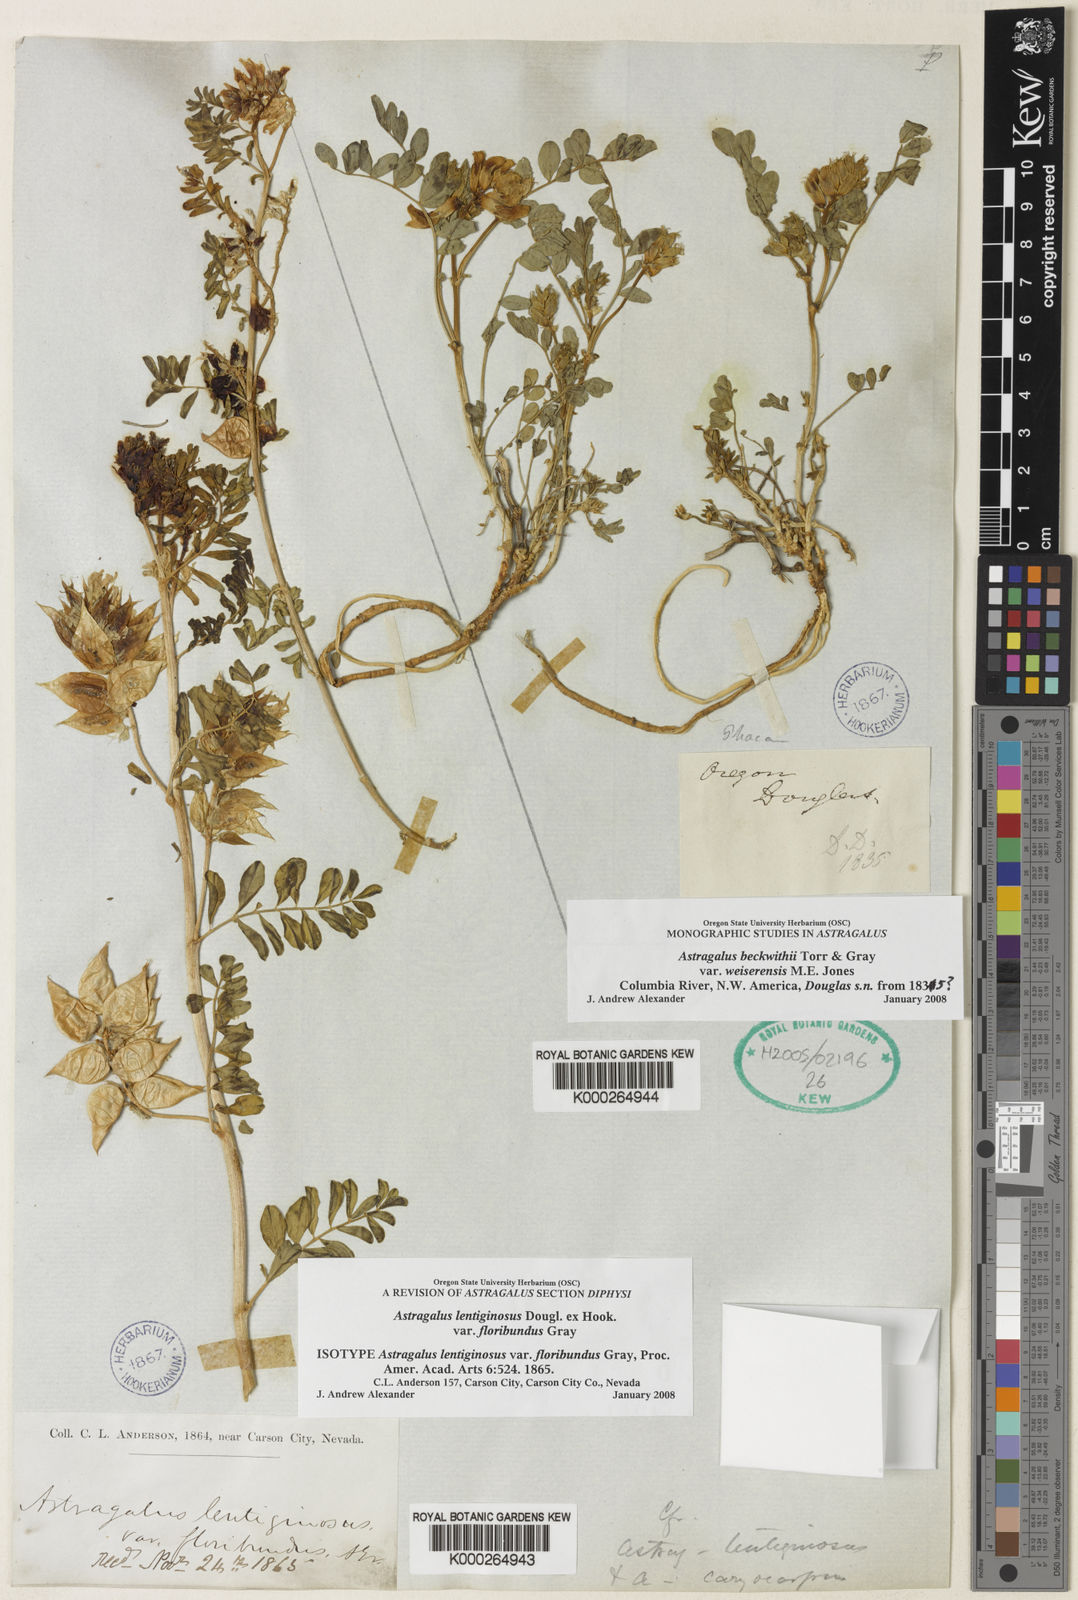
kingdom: Plantae
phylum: Tracheophyta
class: Magnoliopsida
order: Fabales
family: Fabaceae
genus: Astragalus
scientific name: Astragalus lentiginosus
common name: Freckled milkvetch
